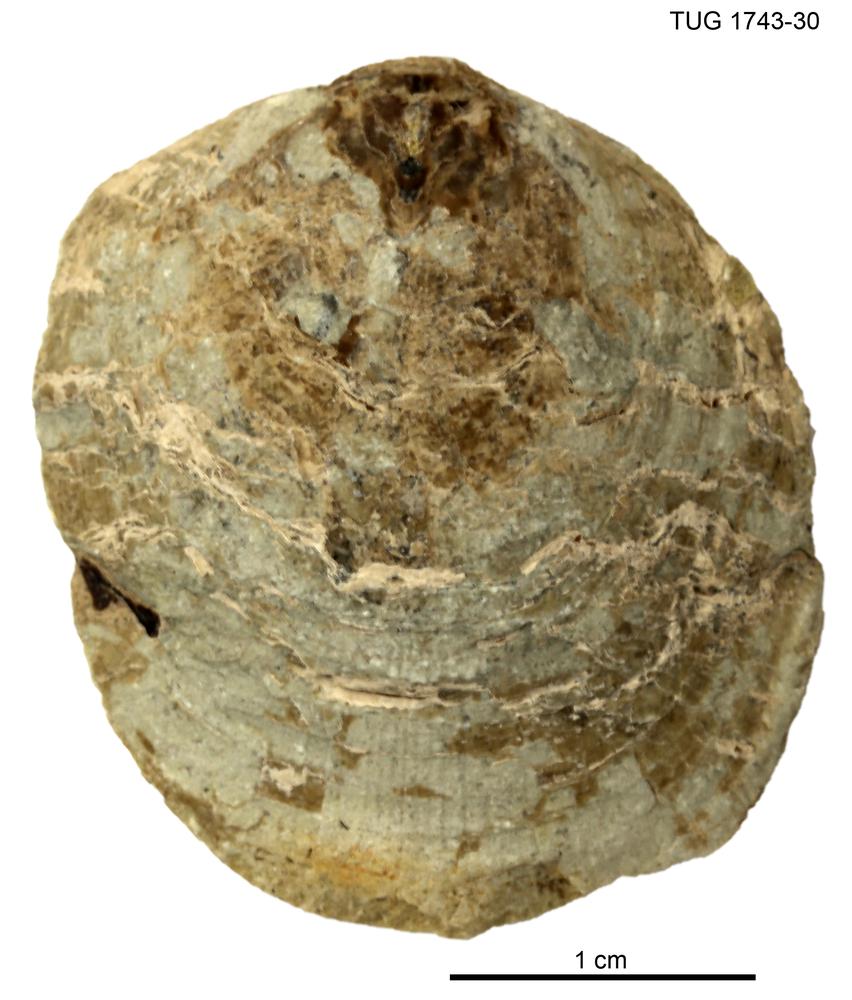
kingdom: Animalia
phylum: Brachiopoda
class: Lingulata
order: Lingulida
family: Pseudolingulidae
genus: Pseudolingula
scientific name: Pseudolingula
